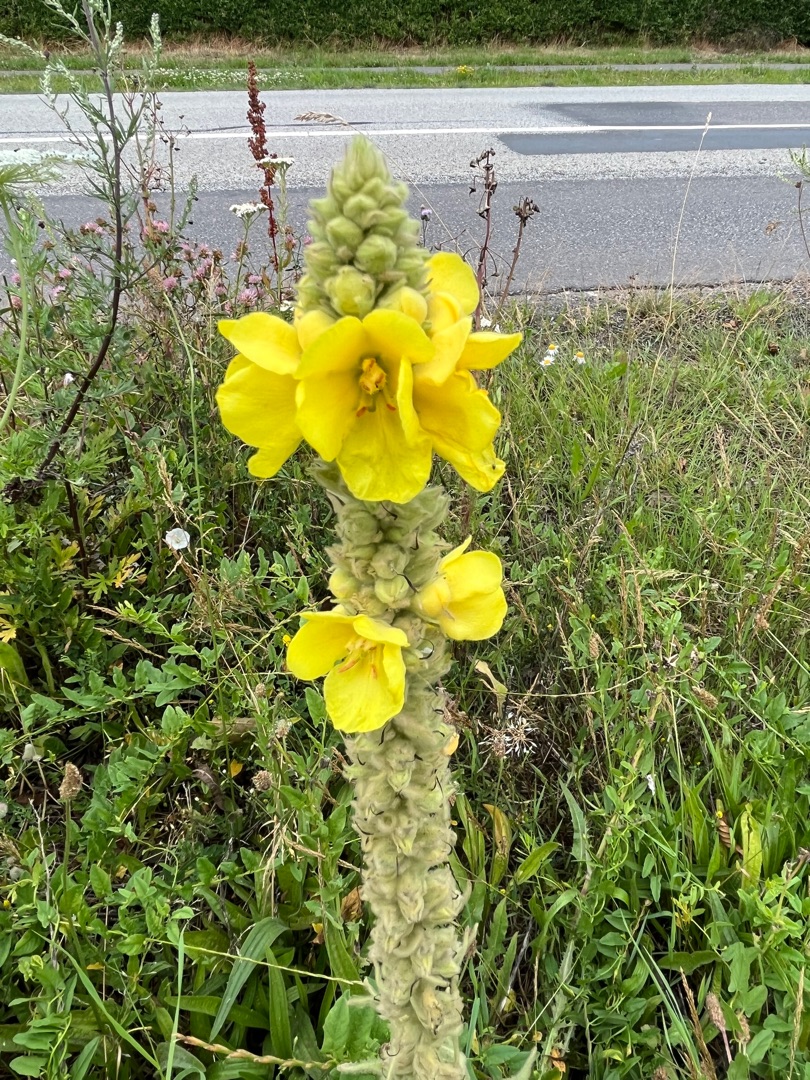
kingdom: Plantae
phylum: Tracheophyta
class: Magnoliopsida
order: Lamiales
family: Scrophulariaceae
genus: Verbascum
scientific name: Verbascum densiflorum
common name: Uldbladet kongelys
